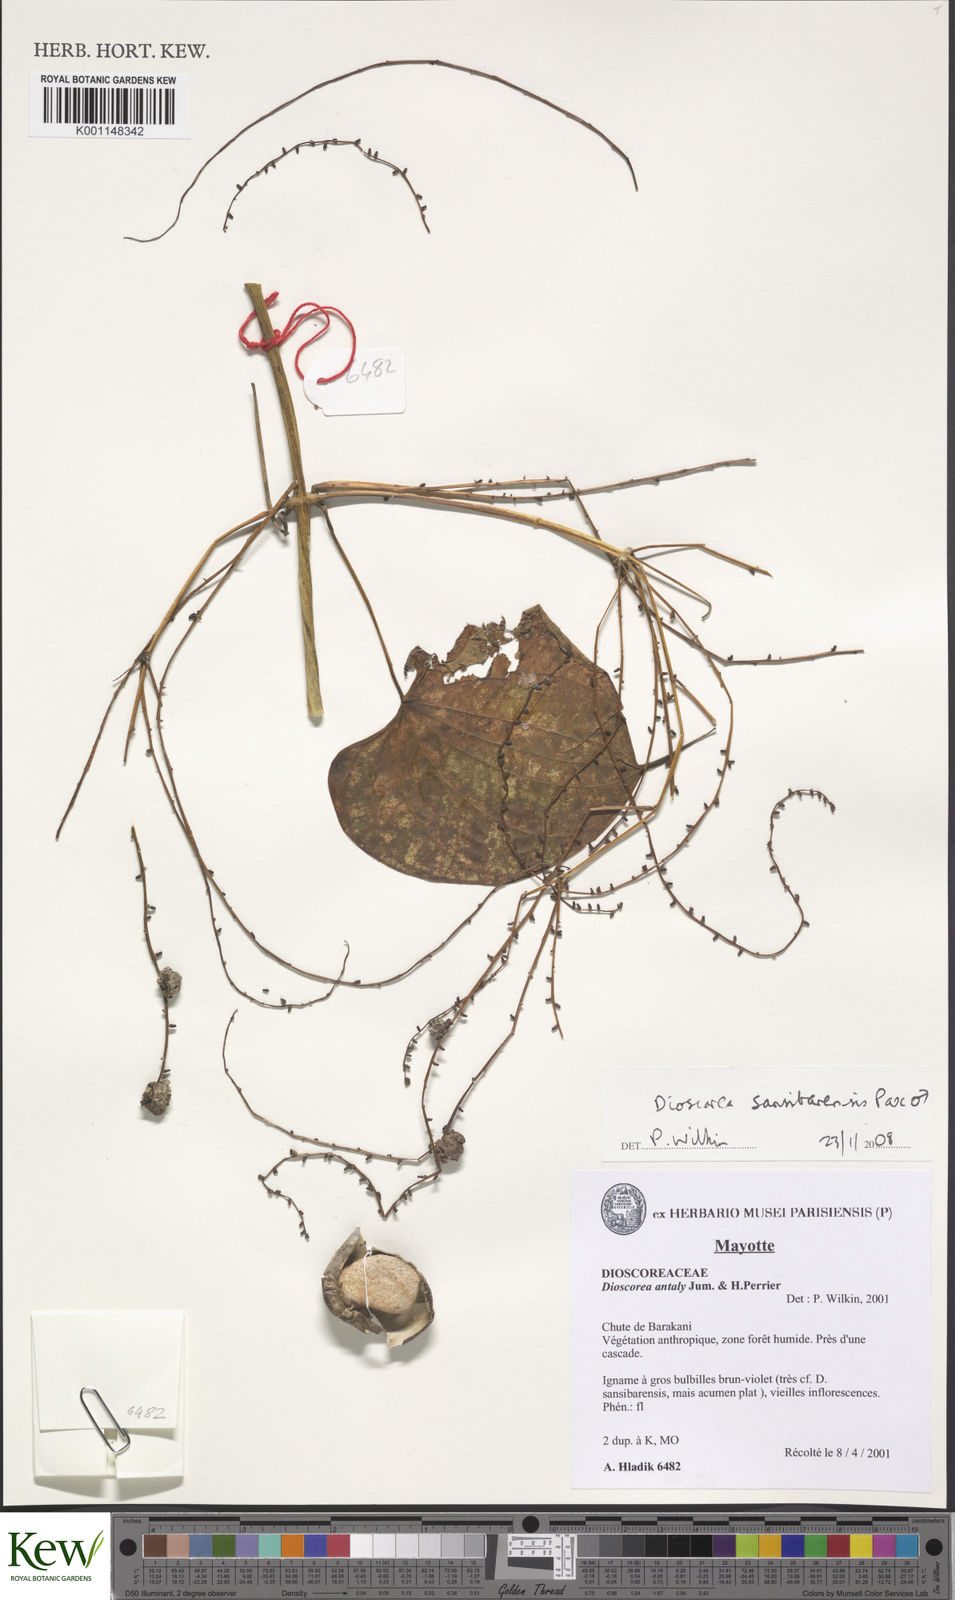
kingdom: Plantae
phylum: Tracheophyta
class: Liliopsida
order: Dioscoreales
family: Dioscoreaceae
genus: Dioscorea
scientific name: Dioscorea sansibarensis
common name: Zanzibar yam
